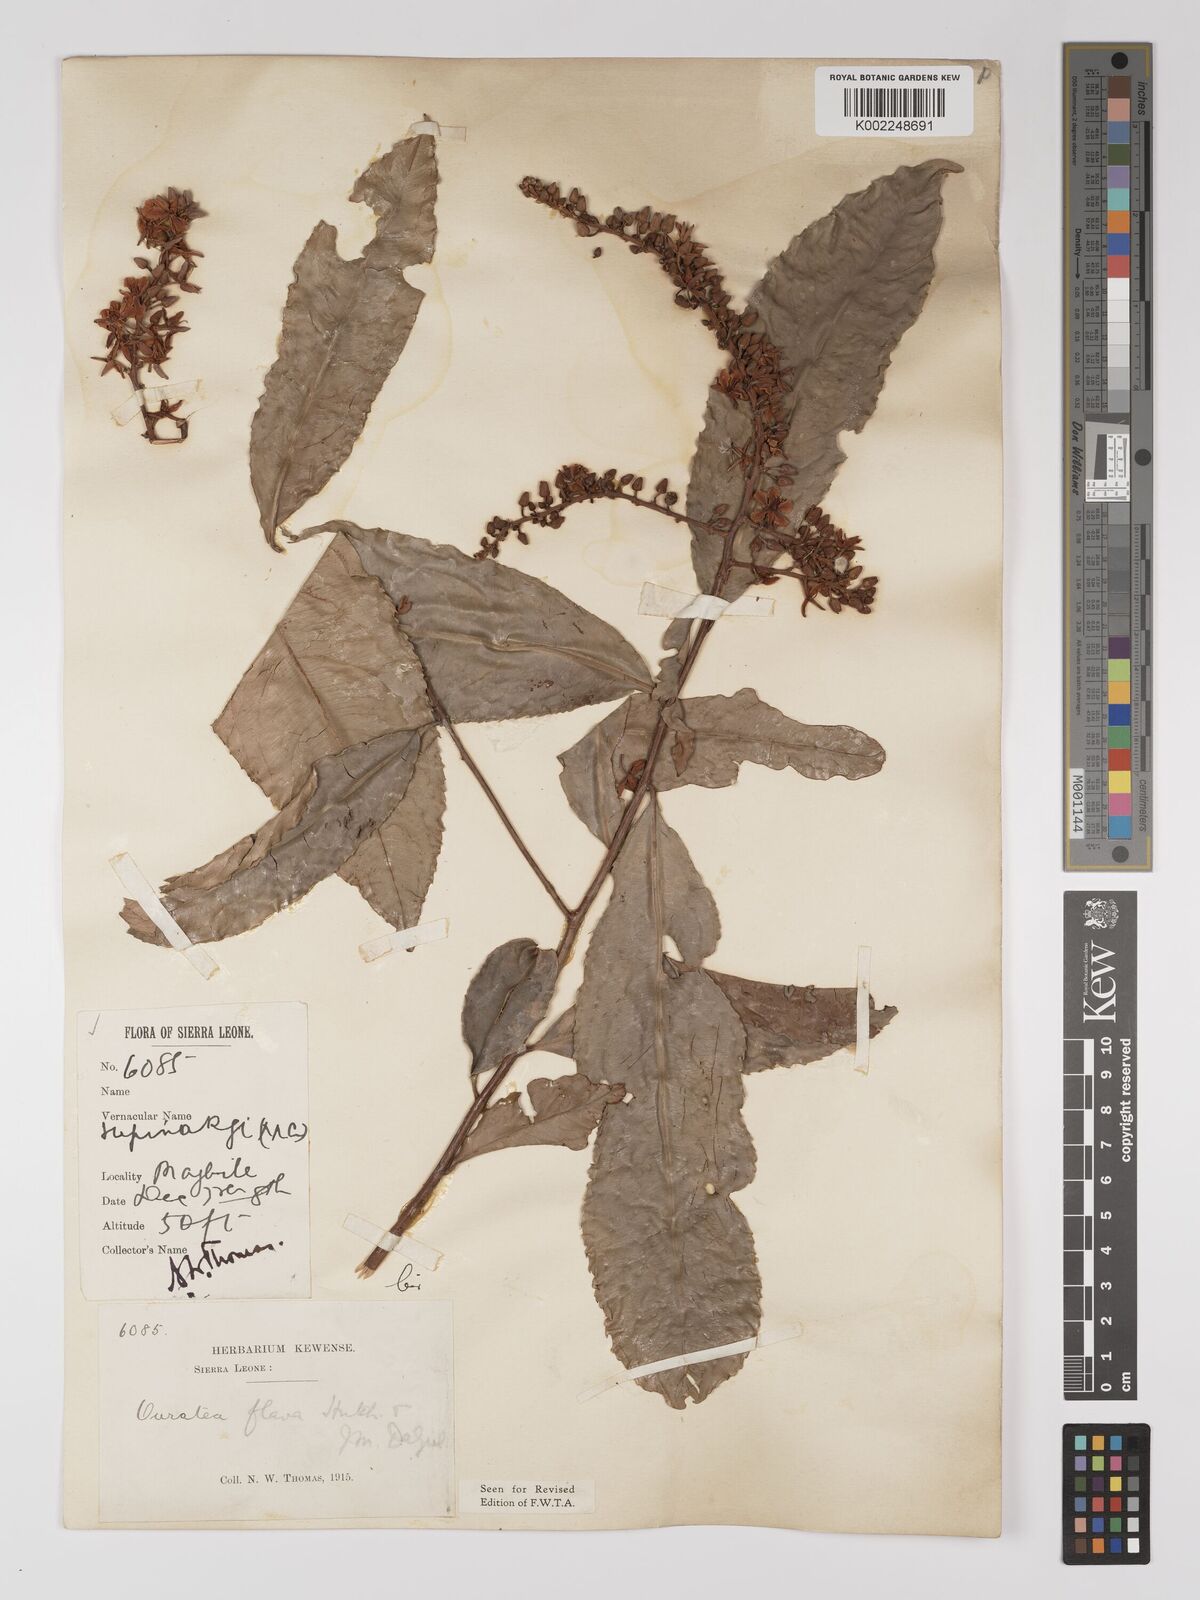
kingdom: Plantae
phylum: Tracheophyta
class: Magnoliopsida
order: Malpighiales
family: Ochnaceae
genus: Campylospermum
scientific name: Campylospermum flavum
